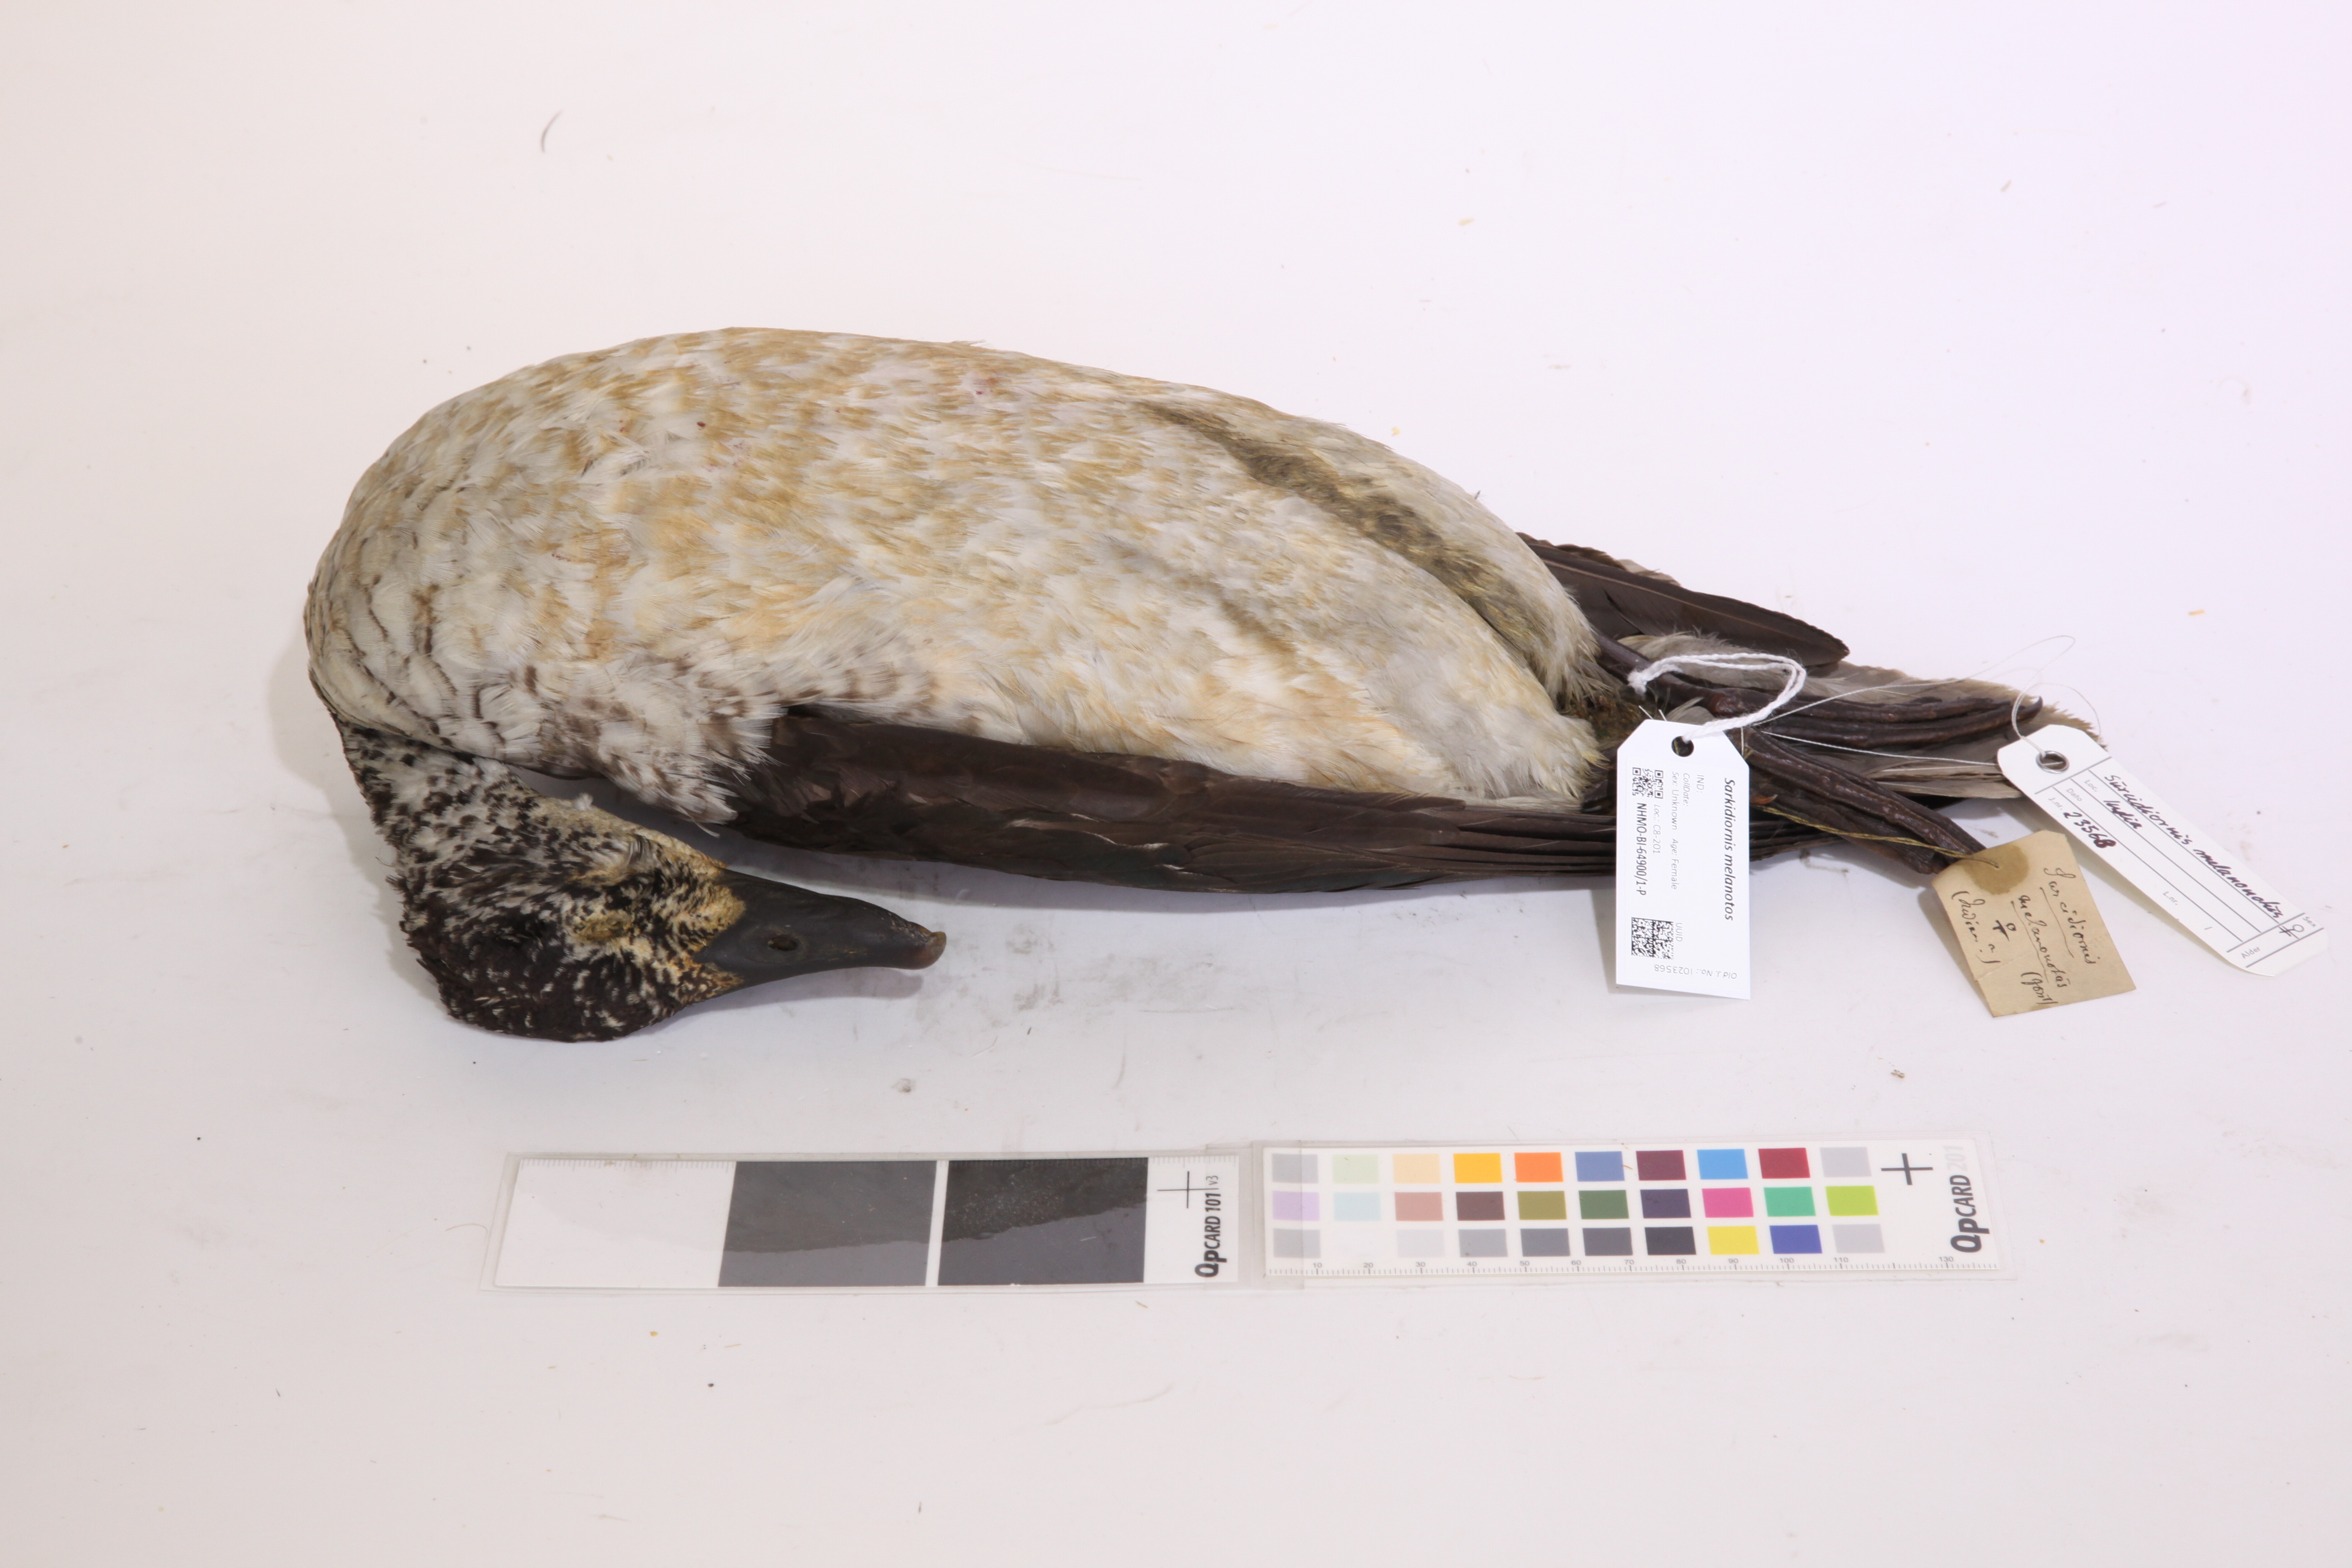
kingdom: Animalia
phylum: Chordata
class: Aves
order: Anseriformes
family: Anatidae
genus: Sarkidiornis
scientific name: Sarkidiornis melanotos
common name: Comb duck
